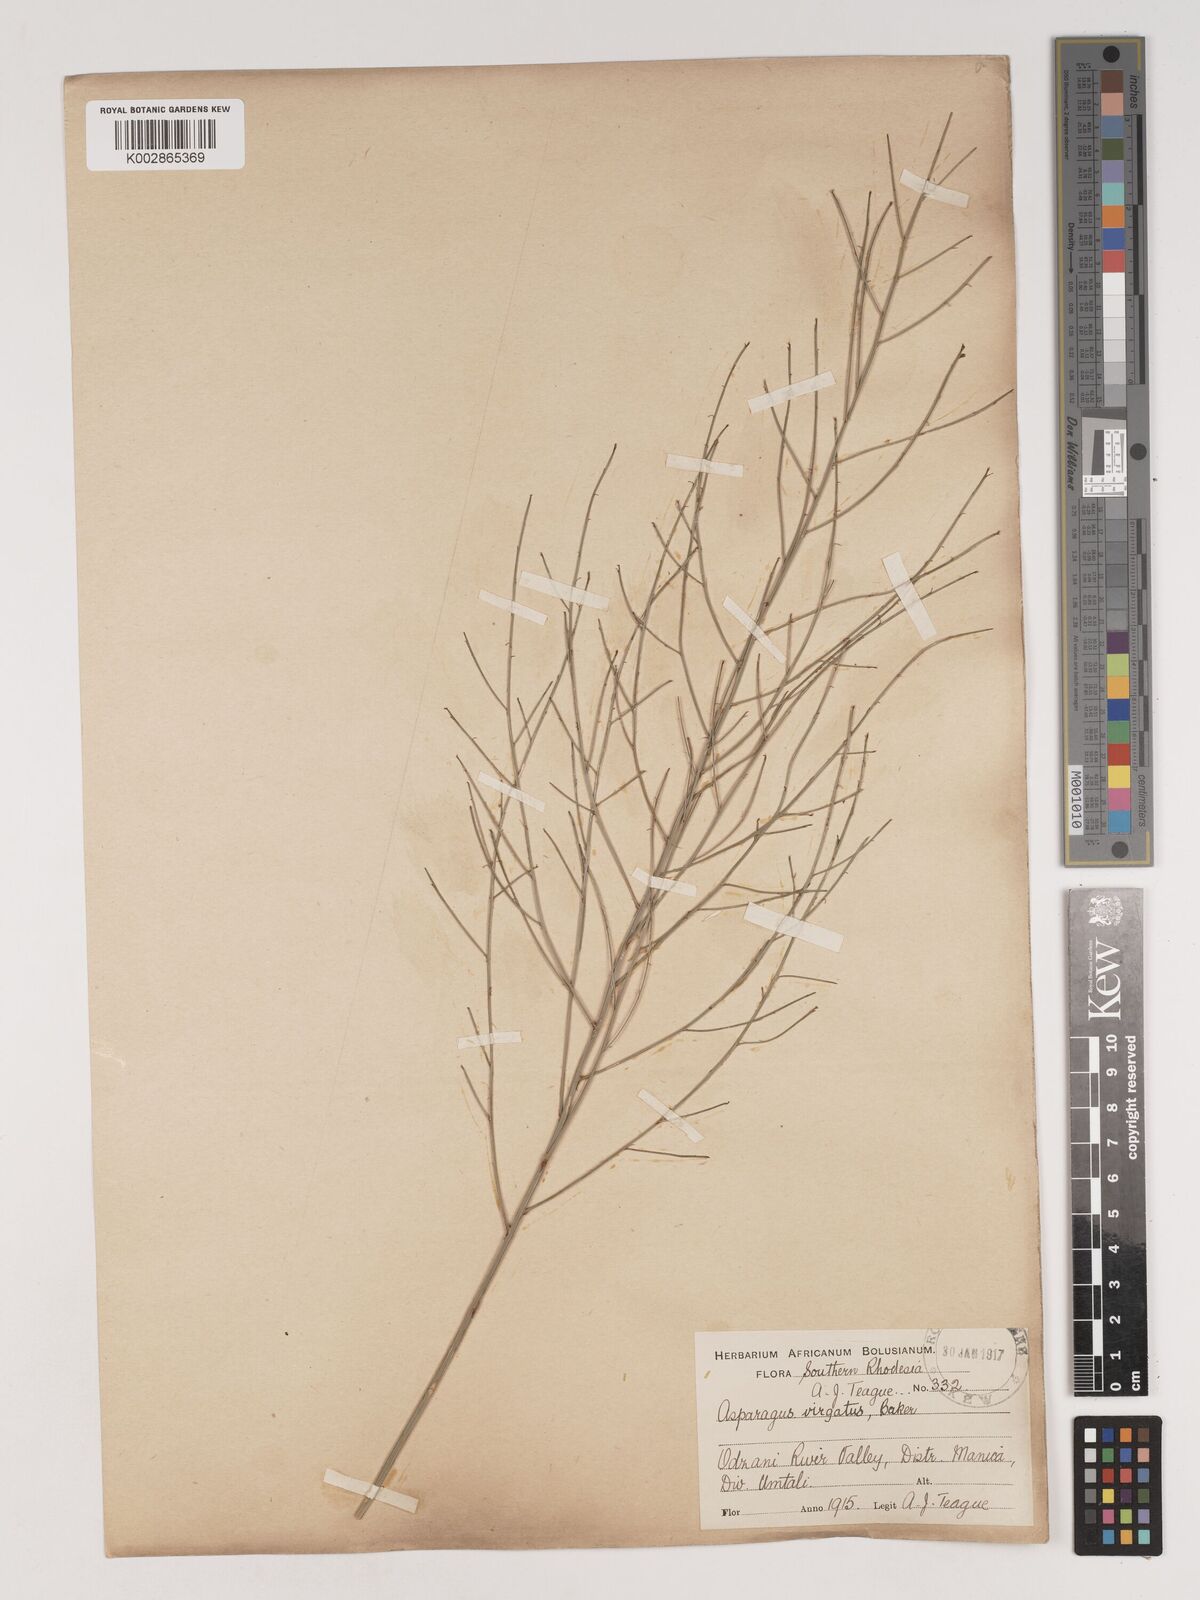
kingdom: Plantae
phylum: Tracheophyta
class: Liliopsida
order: Asparagales
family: Asparagaceae
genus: Asparagus
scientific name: Asparagus virgatus
